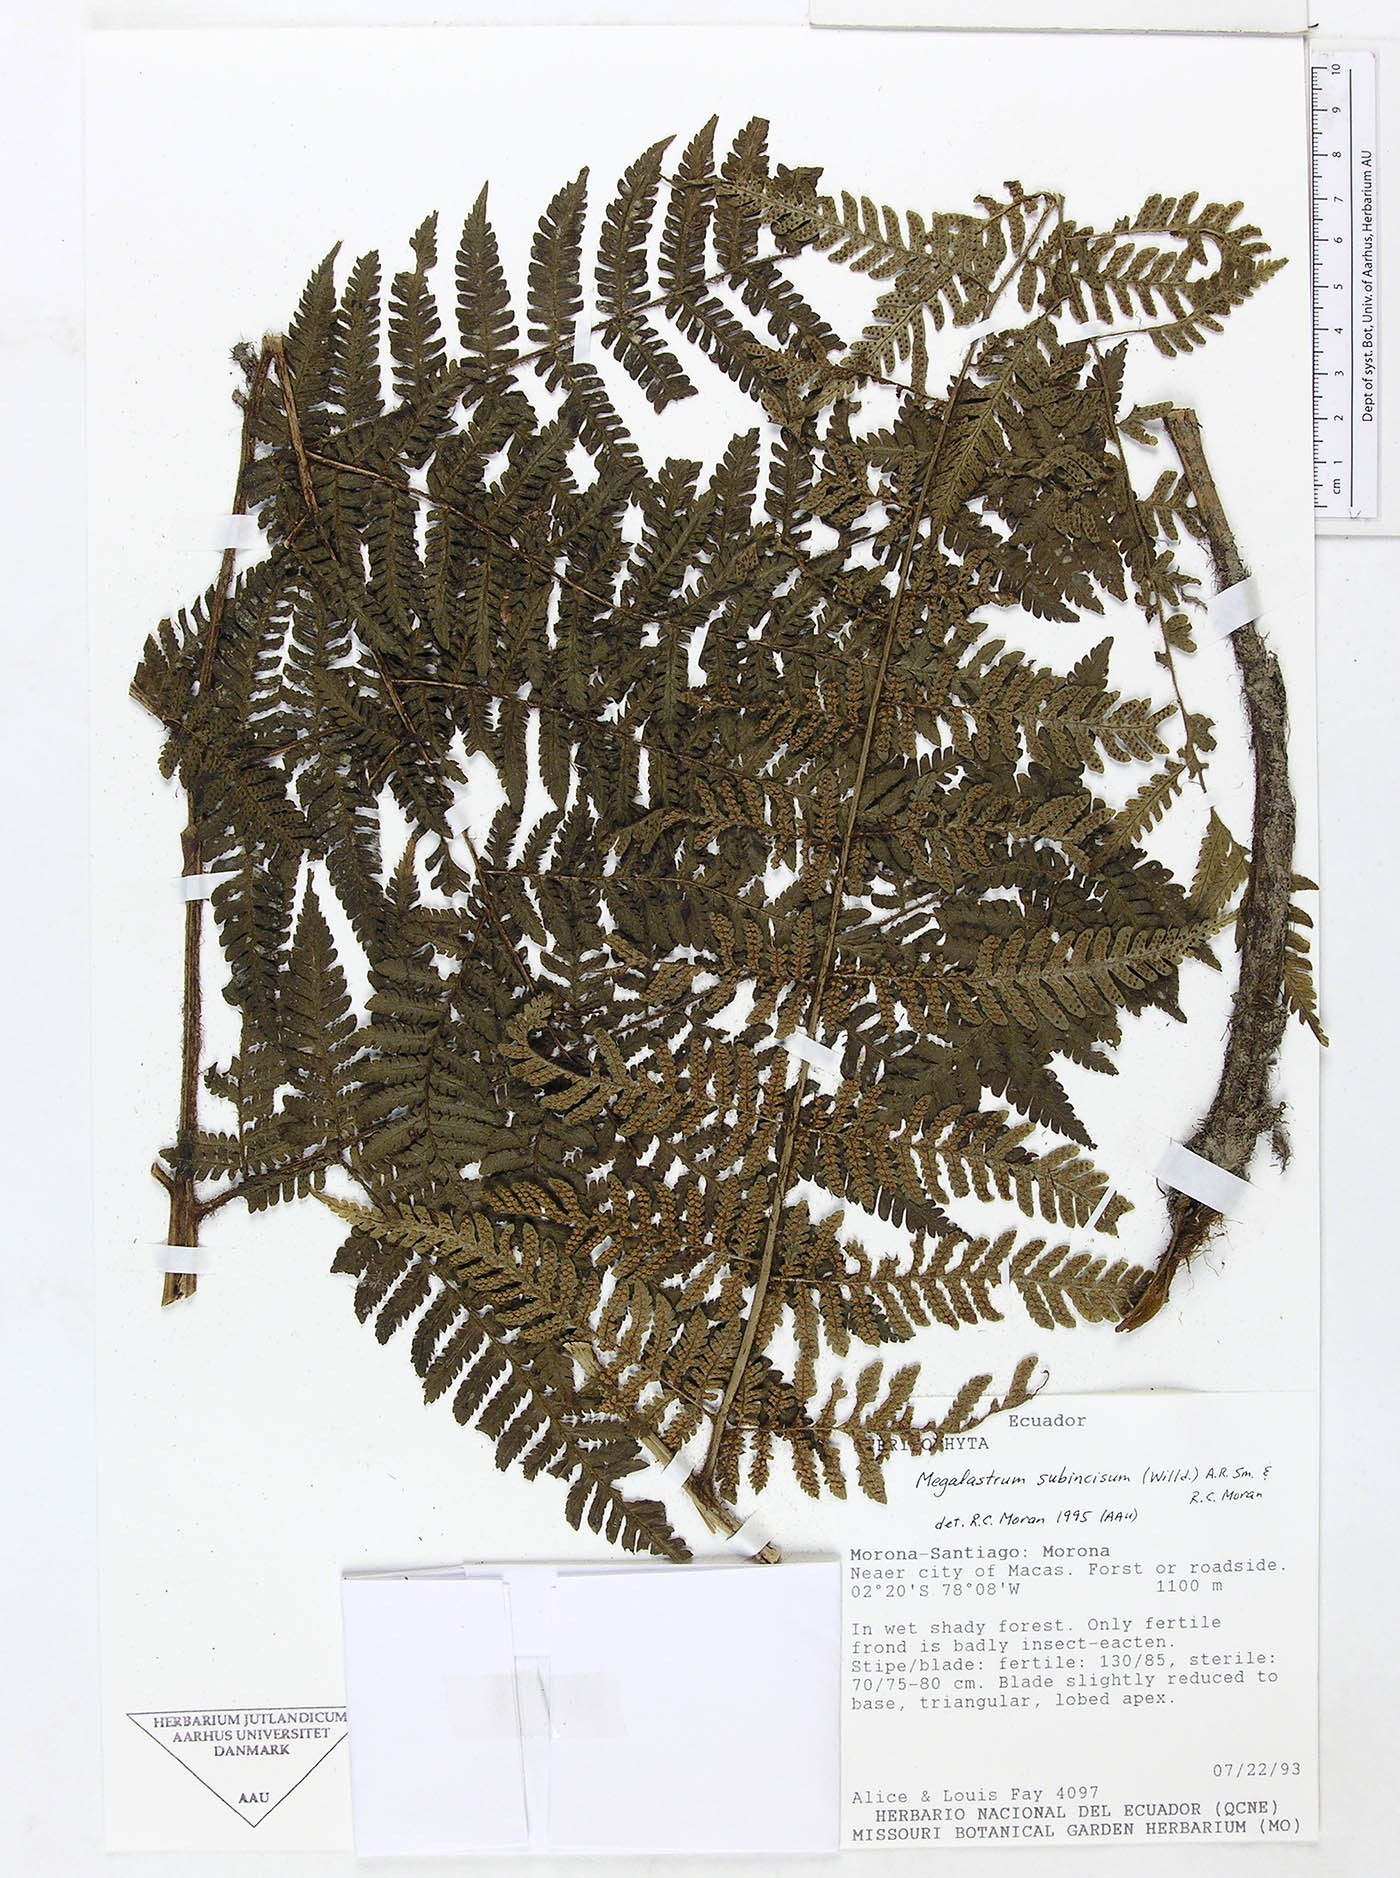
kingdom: Plantae
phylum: Tracheophyta
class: Polypodiopsida
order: Polypodiales
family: Dryopteridaceae
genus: Megalastrum
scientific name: Megalastrum praetermissum
